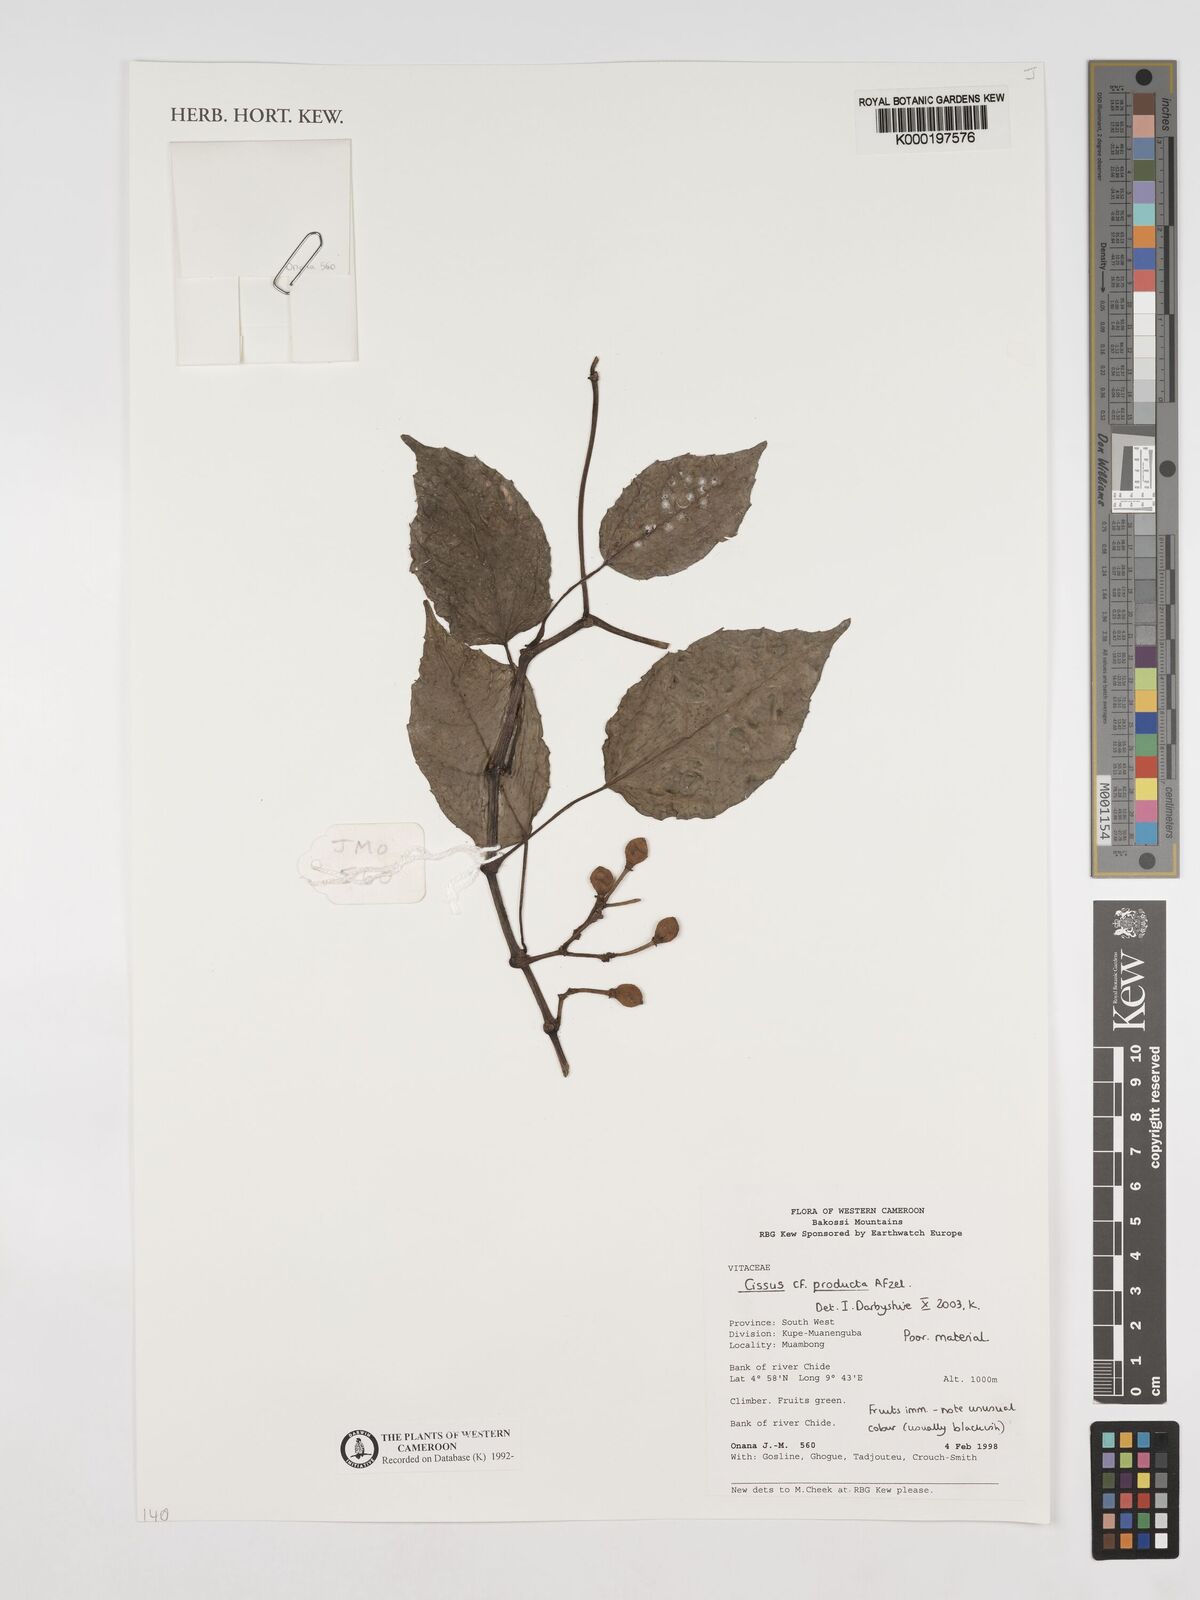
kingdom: Plantae
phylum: Tracheophyta
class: Magnoliopsida
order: Vitales
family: Vitaceae
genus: Cissus
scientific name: Cissus producta
